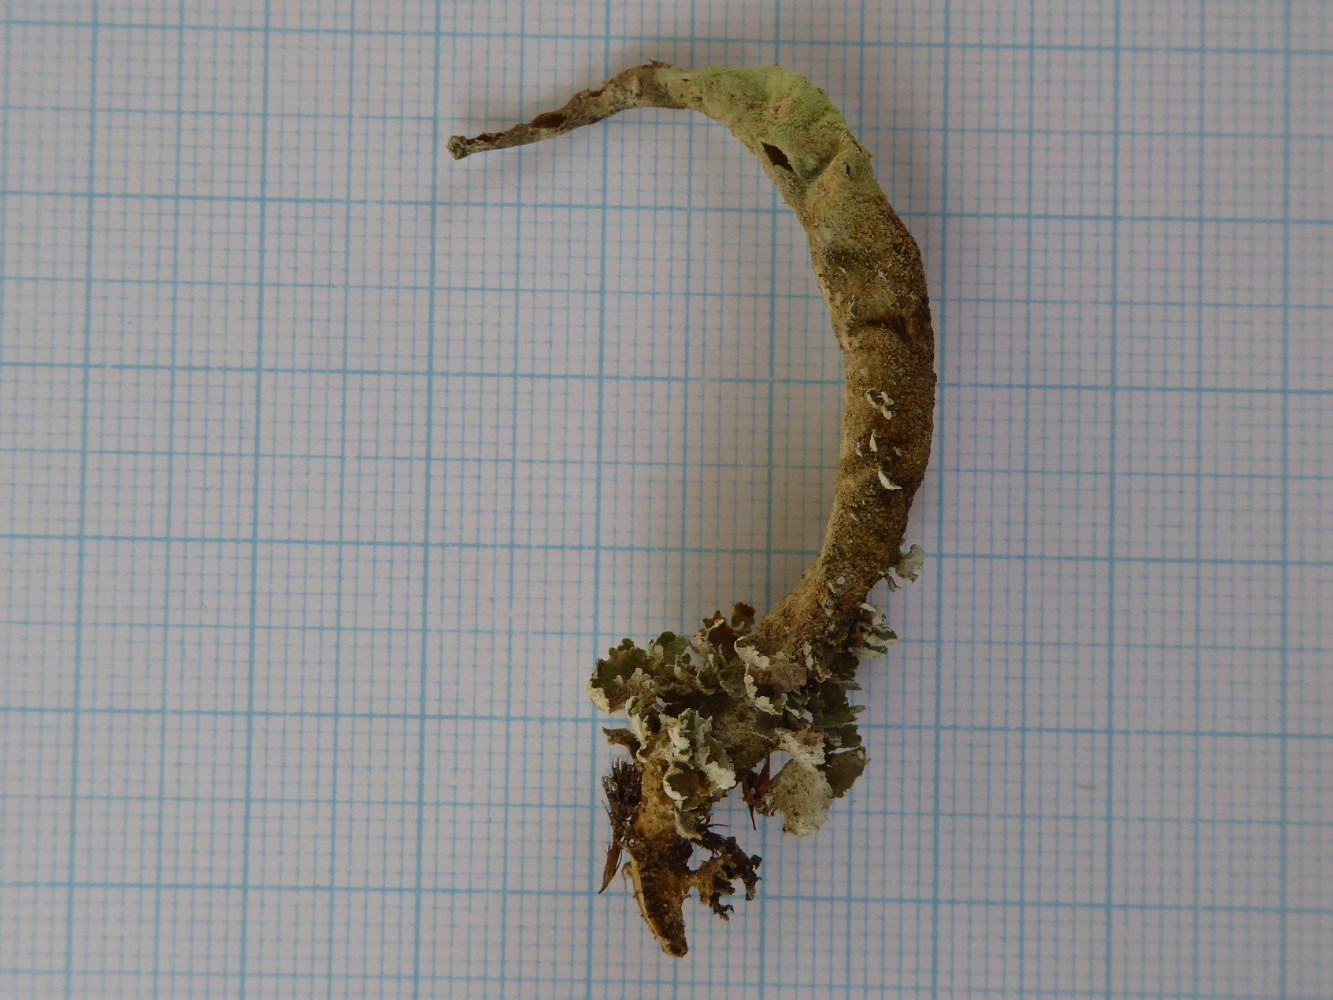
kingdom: Fungi
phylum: Ascomycota
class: Lecanoromycetes
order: Lecanorales
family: Cladoniaceae
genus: Cladonia
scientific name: Cladonia sulphurina
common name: opblæst bægerlav
